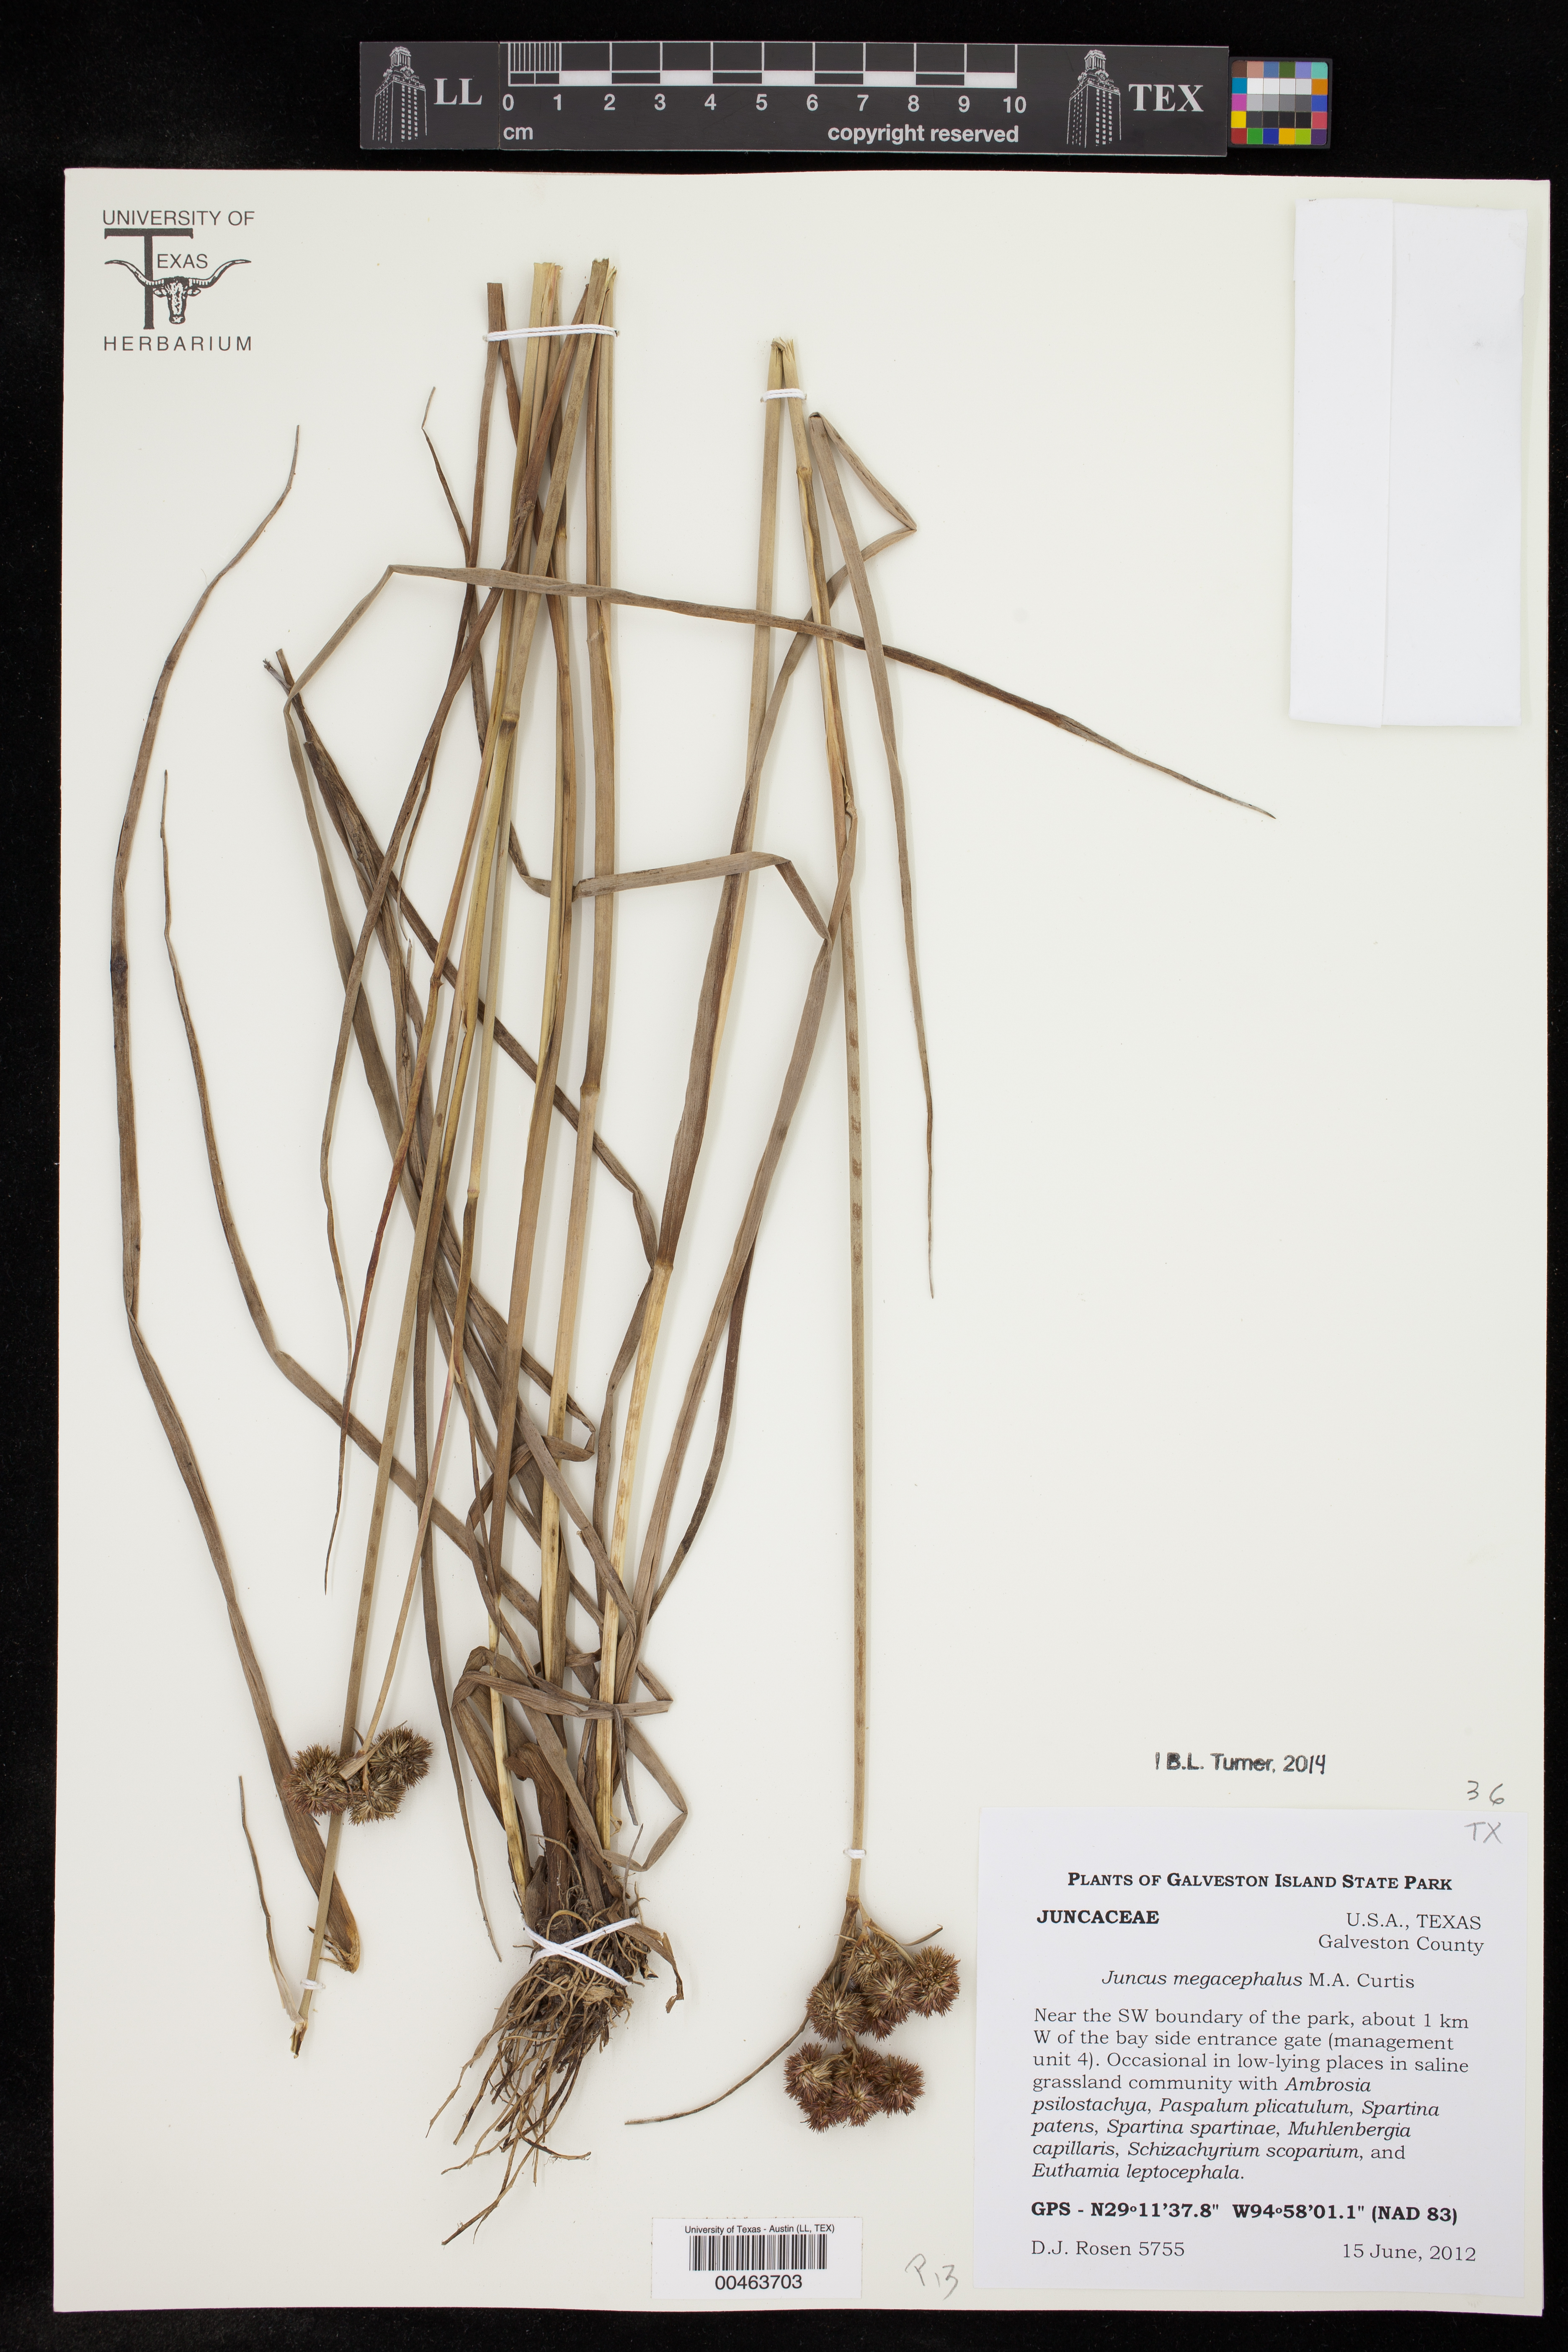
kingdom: Plantae
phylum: Tracheophyta
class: Liliopsida
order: Poales
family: Juncaceae
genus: Juncus
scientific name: Juncus megacephalus
